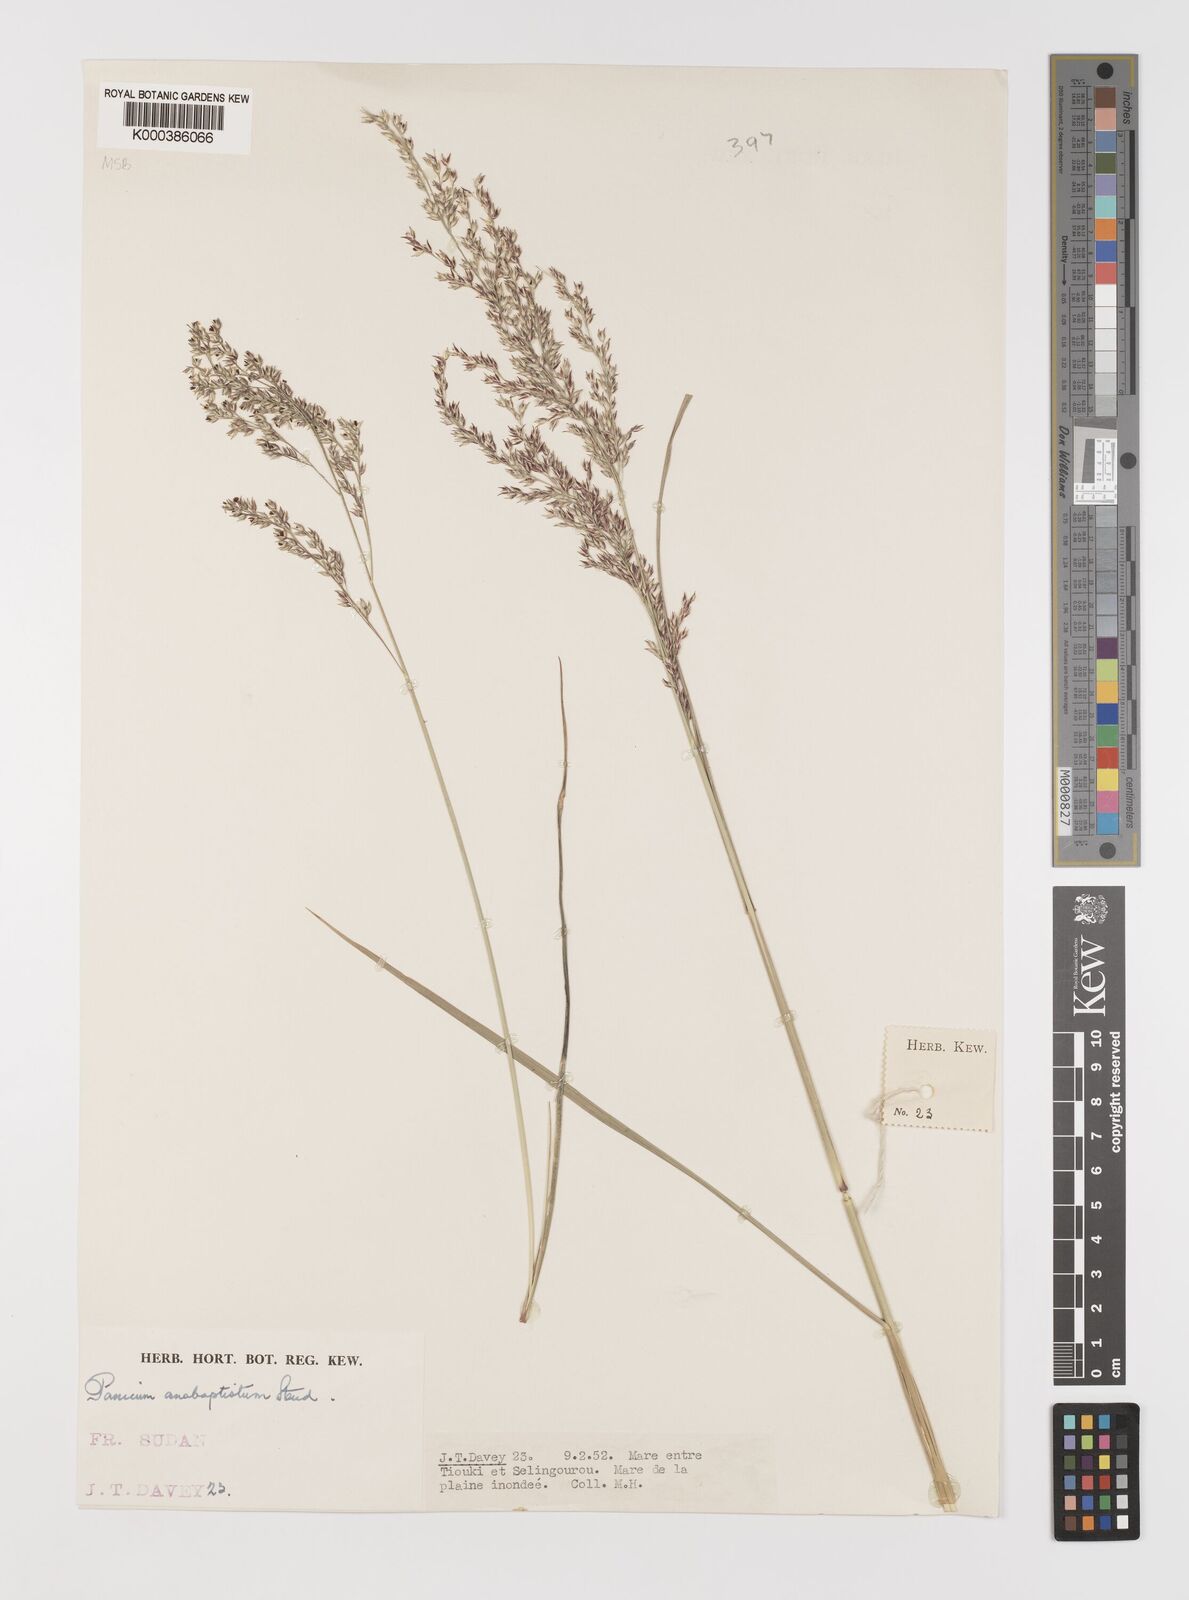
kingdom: Plantae
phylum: Tracheophyta
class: Liliopsida
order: Poales
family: Poaceae
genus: Panicum
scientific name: Panicum anabaptistum
